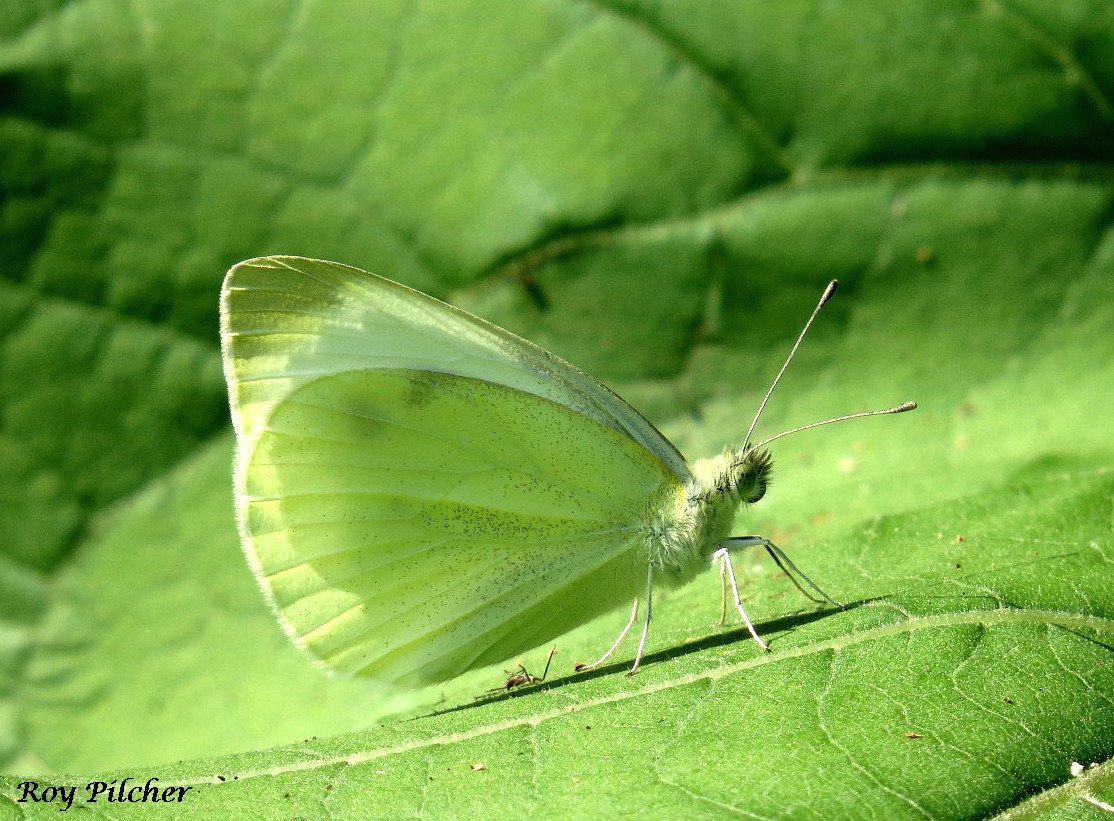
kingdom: Animalia
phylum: Arthropoda
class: Insecta
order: Lepidoptera
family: Pieridae
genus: Pieris
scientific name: Pieris rapae
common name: Cabbage White
